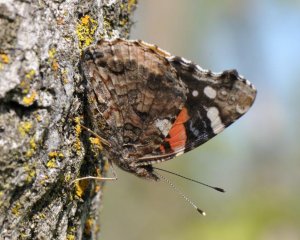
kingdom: Animalia
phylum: Arthropoda
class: Insecta
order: Lepidoptera
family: Nymphalidae
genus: Vanessa
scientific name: Vanessa atalanta
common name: Red Admiral
